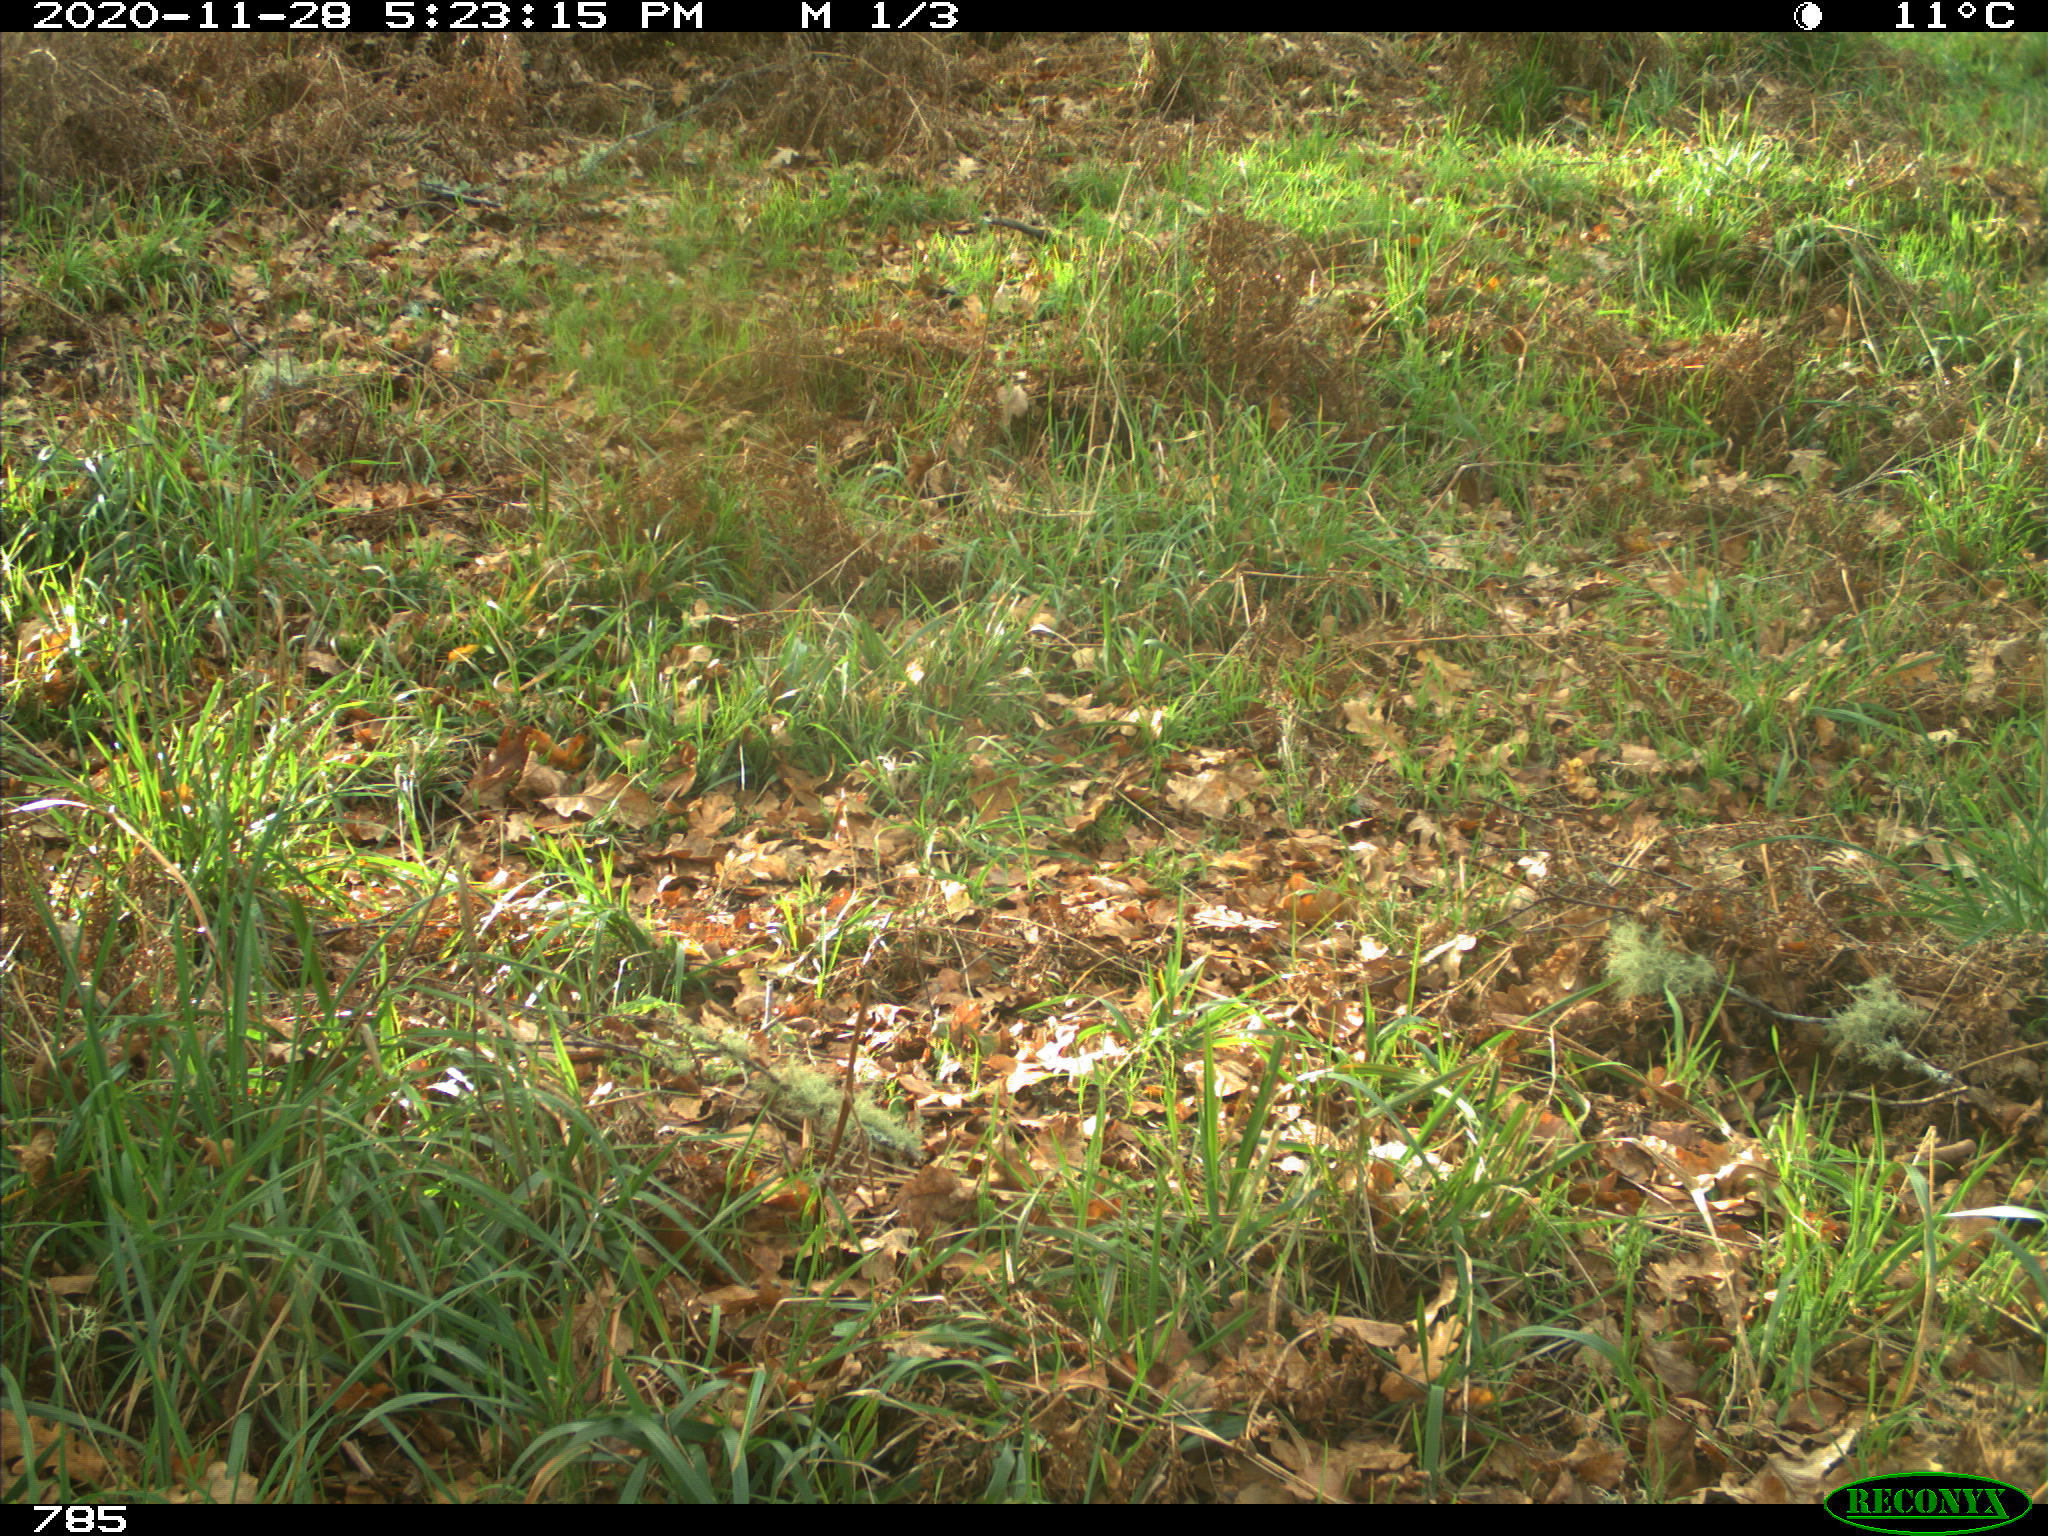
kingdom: Animalia
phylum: Chordata
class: Mammalia
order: Artiodactyla
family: Bovidae
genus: Bos
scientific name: Bos taurus
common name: Domesticated cattle
